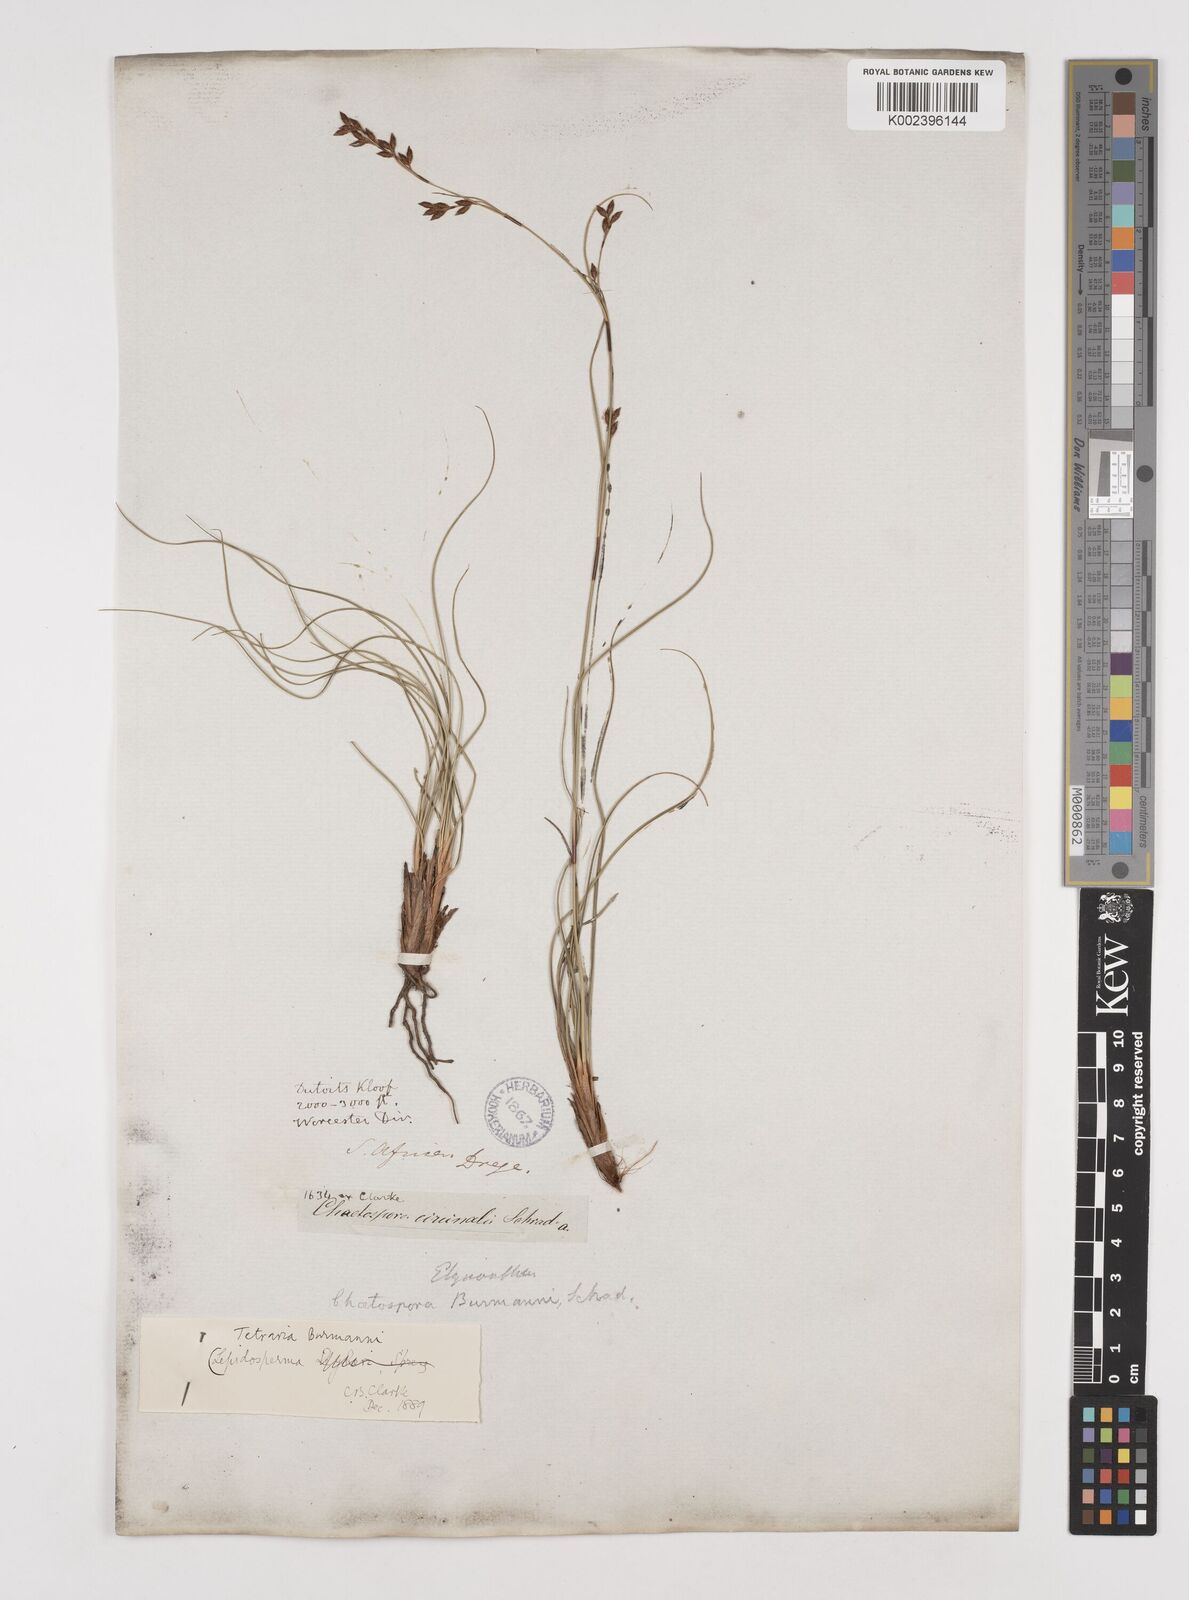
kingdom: Plantae
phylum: Tracheophyta
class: Liliopsida
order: Poales
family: Cyperaceae
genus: Tetraria
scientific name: Tetraria burmanni
